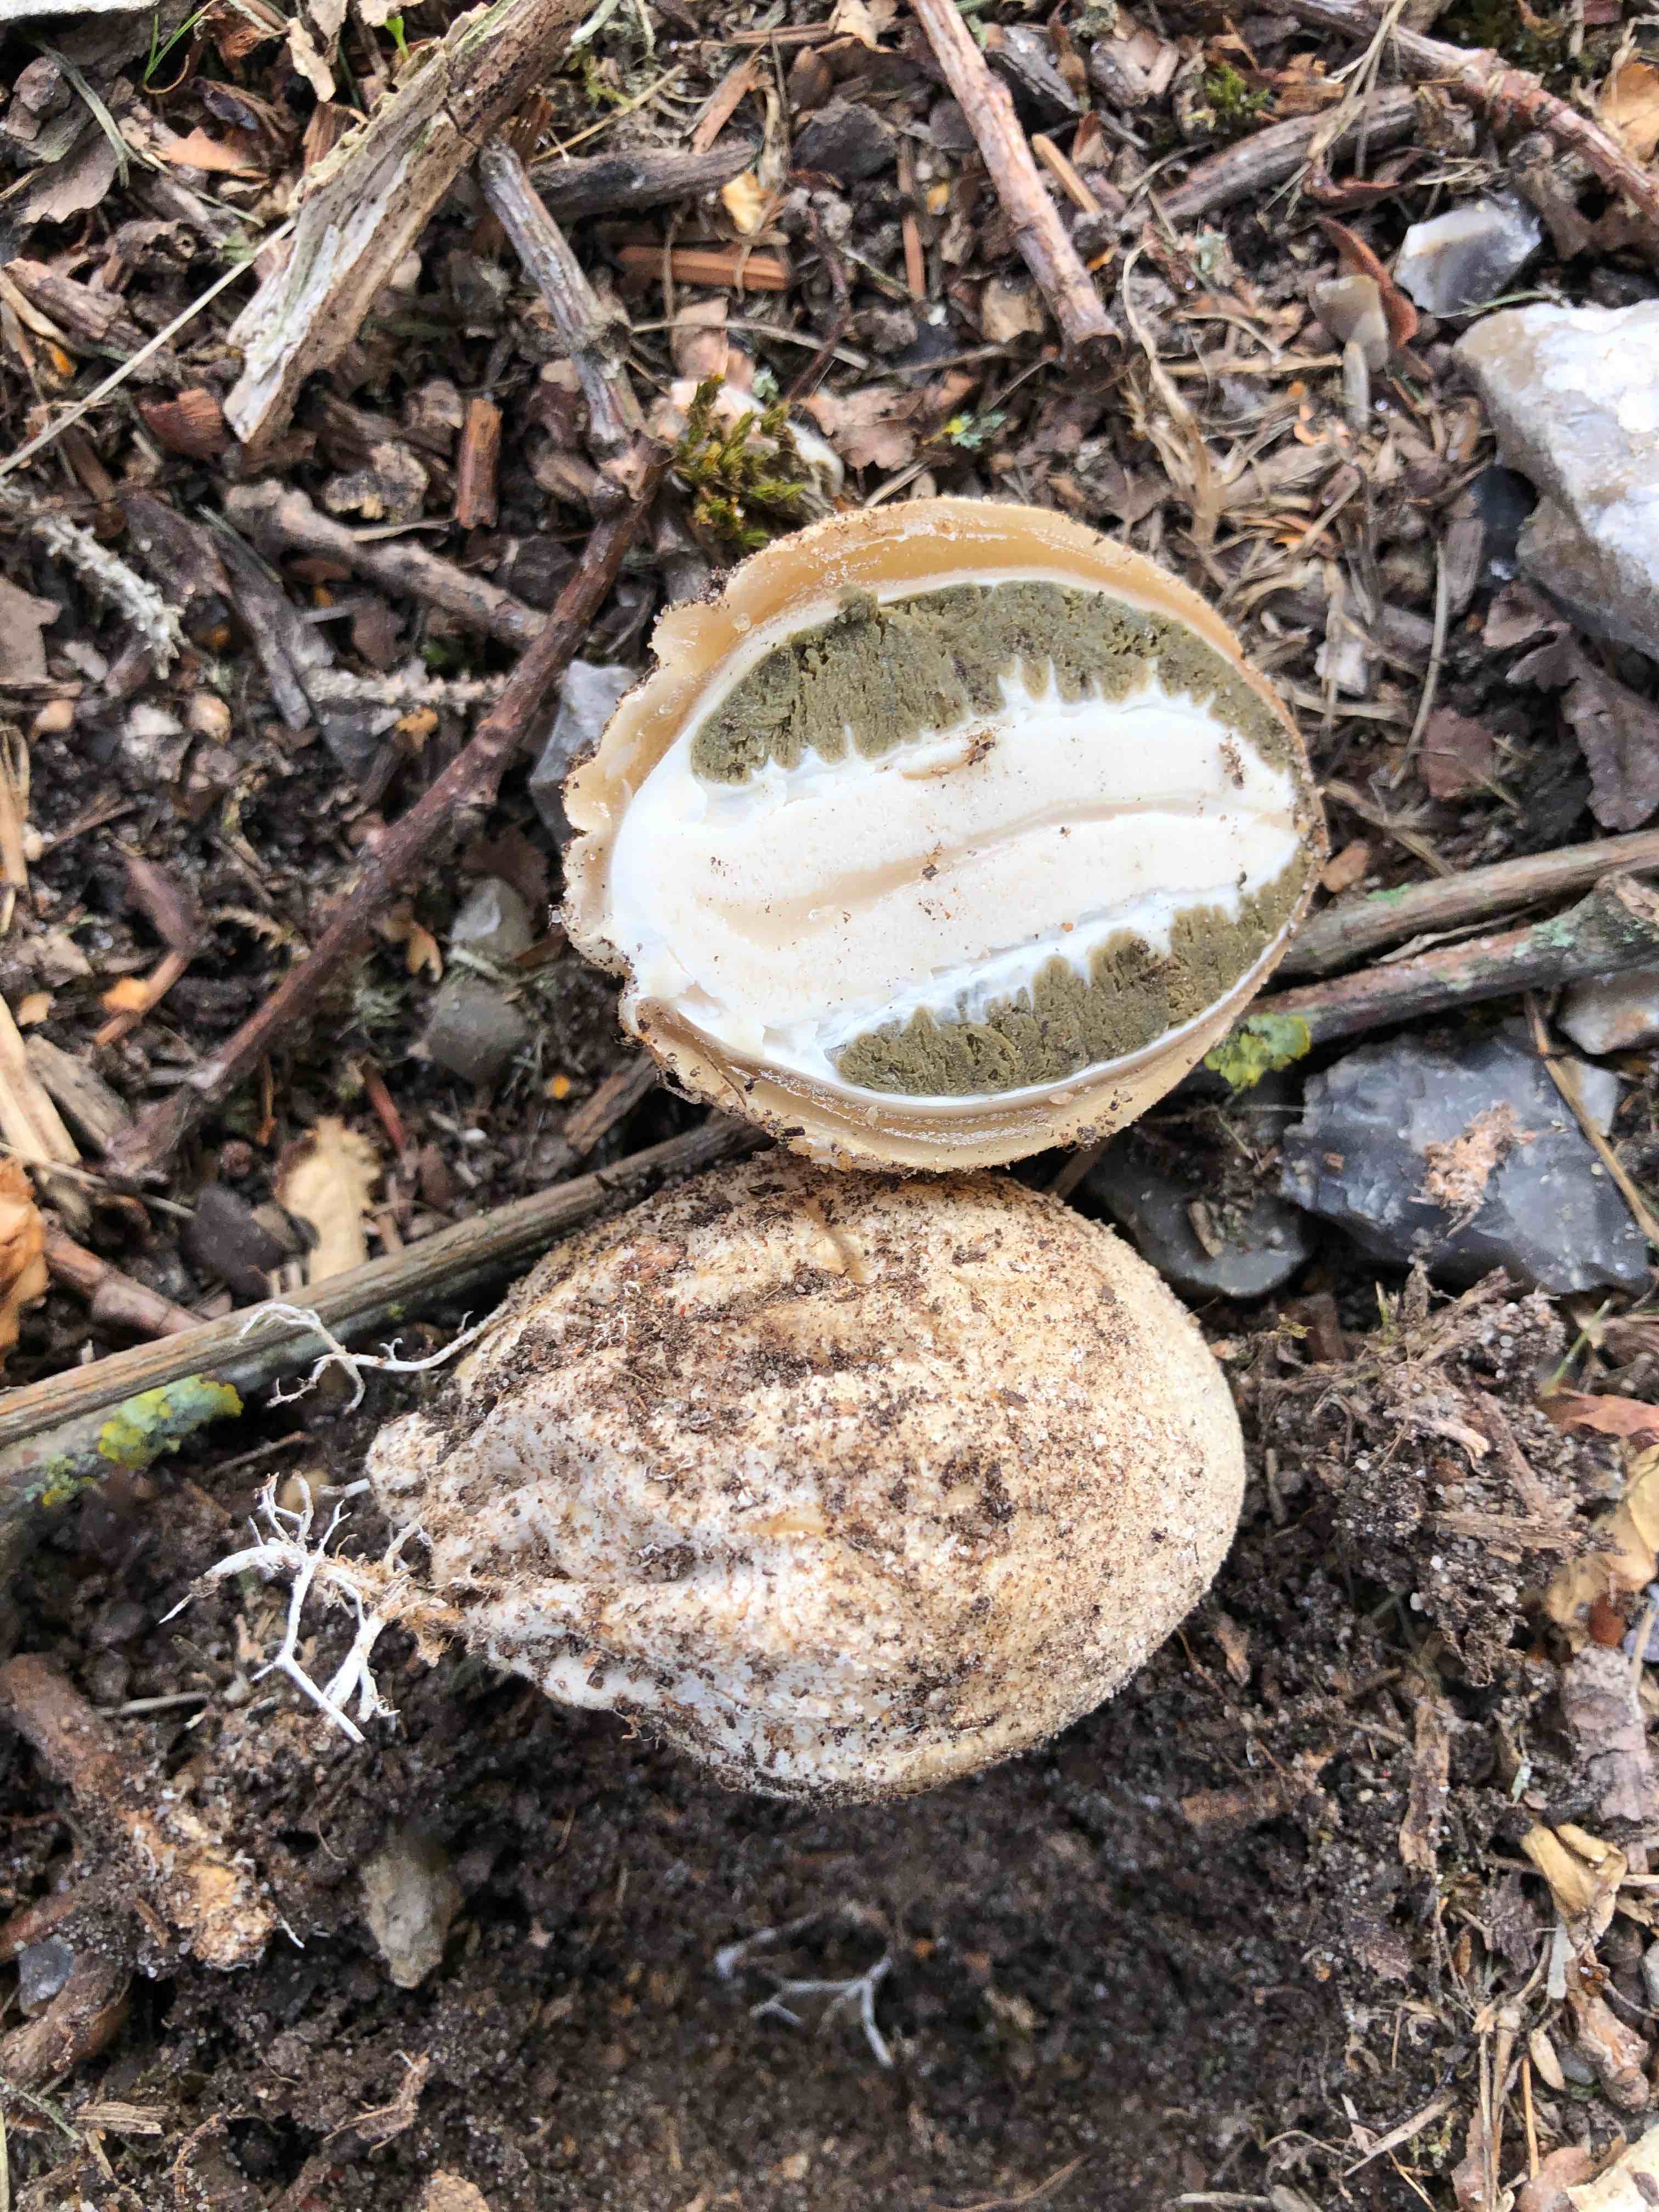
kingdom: Fungi
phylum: Basidiomycota
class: Agaricomycetes
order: Phallales
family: Phallaceae
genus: Phallus
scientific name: Phallus impudicus
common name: almindelig stinksvamp
